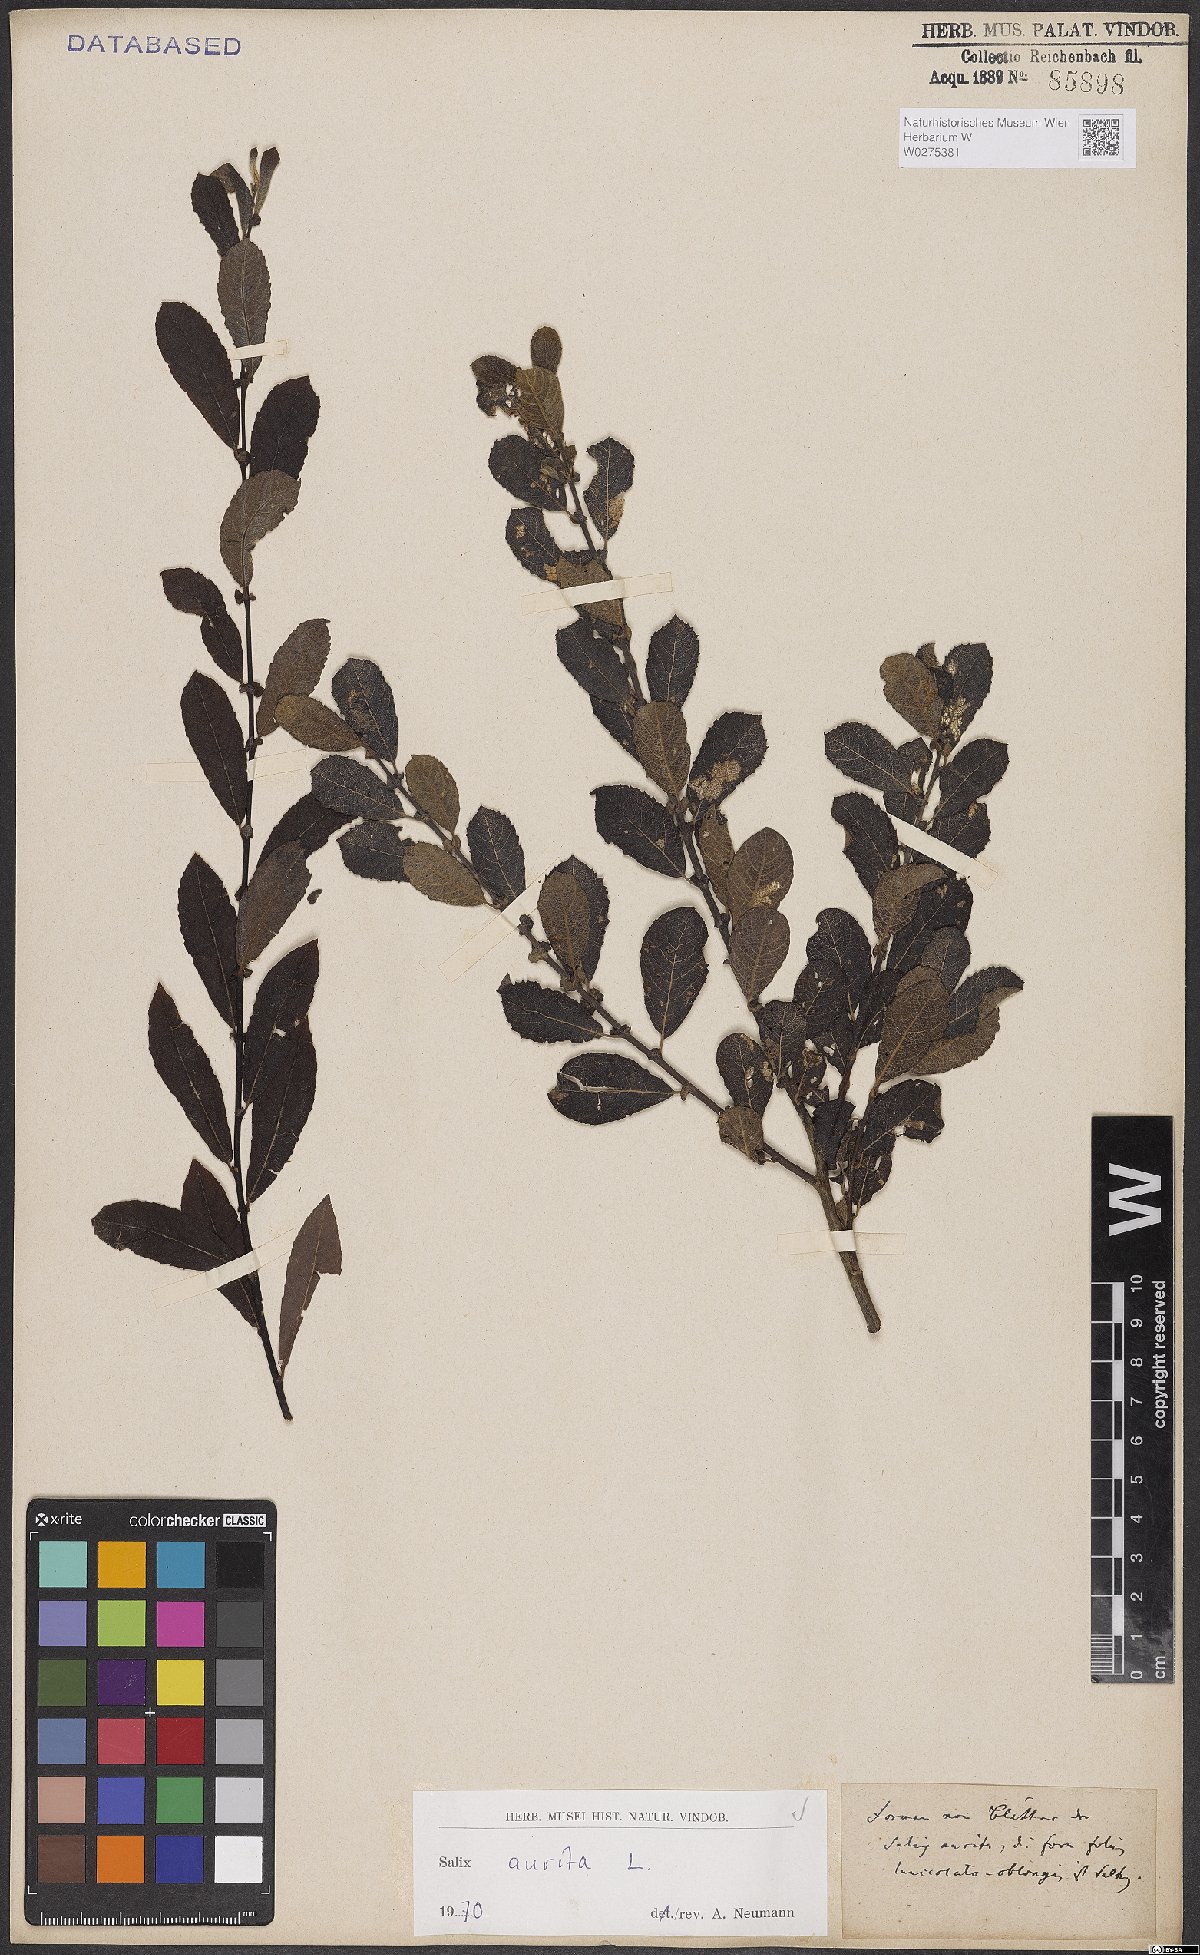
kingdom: Plantae
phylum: Tracheophyta
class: Magnoliopsida
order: Malpighiales
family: Salicaceae
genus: Salix
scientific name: Salix aurita
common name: Eared willow
